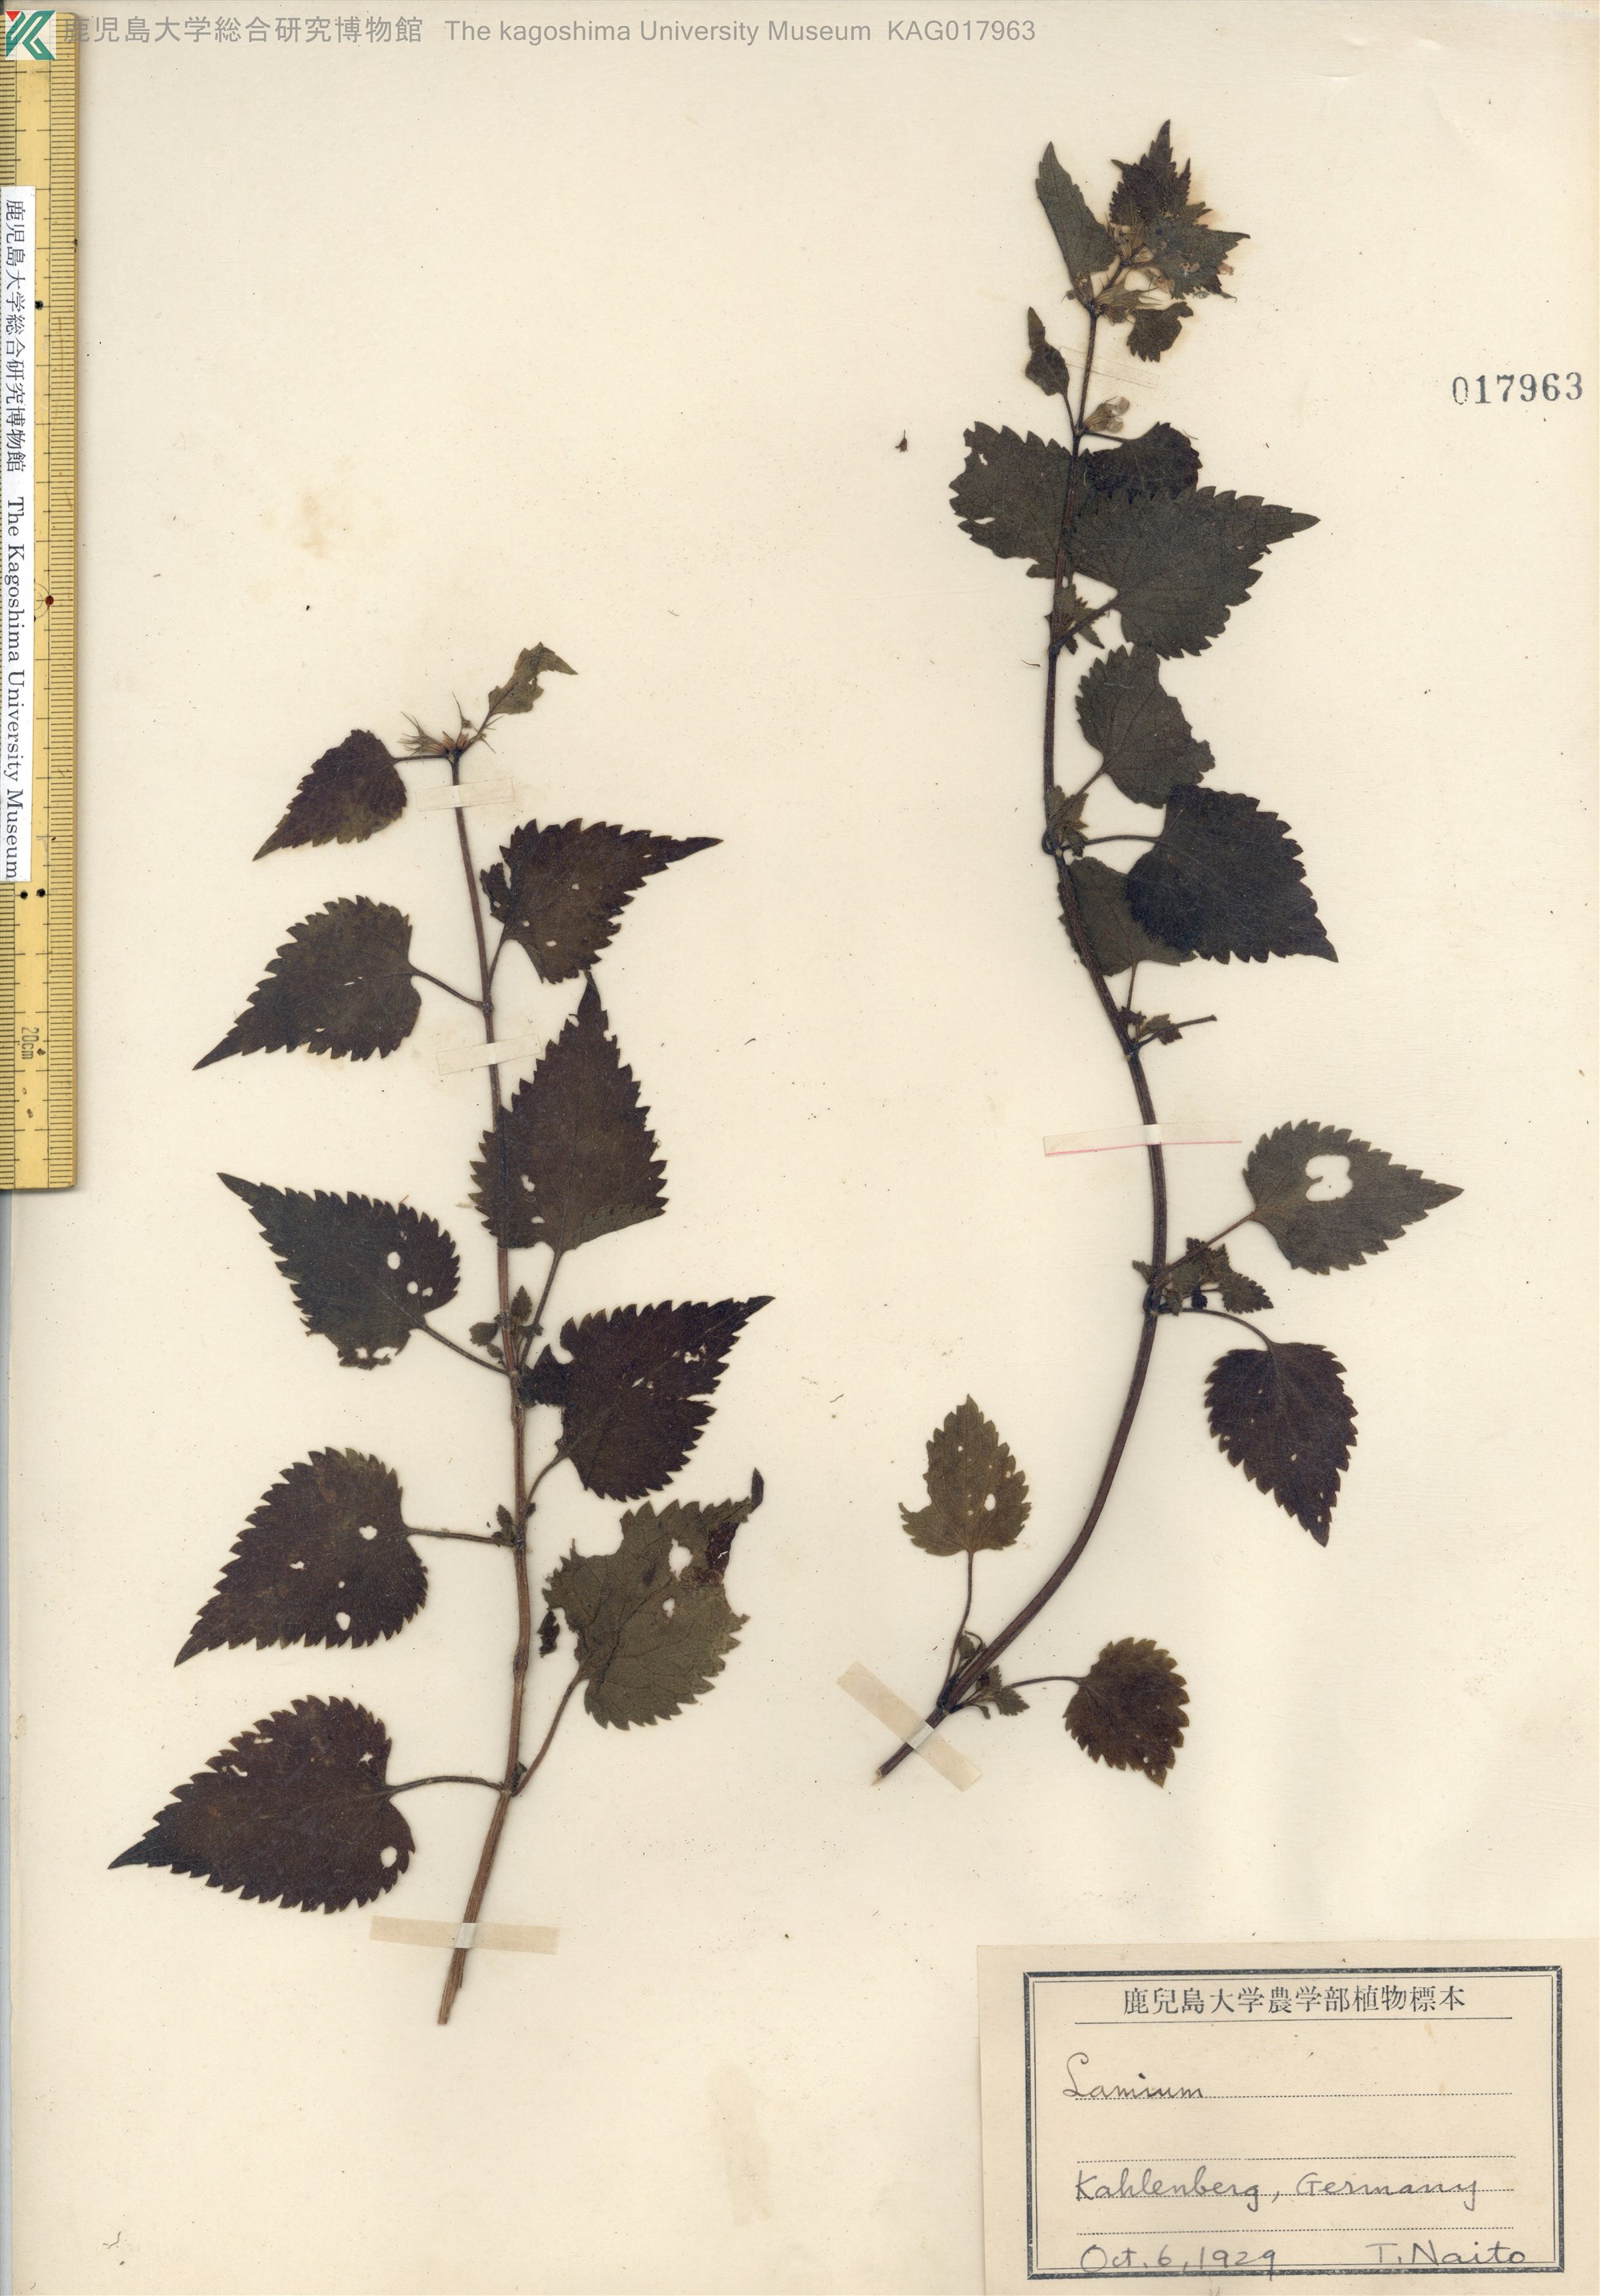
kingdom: Plantae
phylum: Tracheophyta
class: Magnoliopsida
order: Lamiales
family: Lamiaceae
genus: Lamium
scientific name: Lamium album
